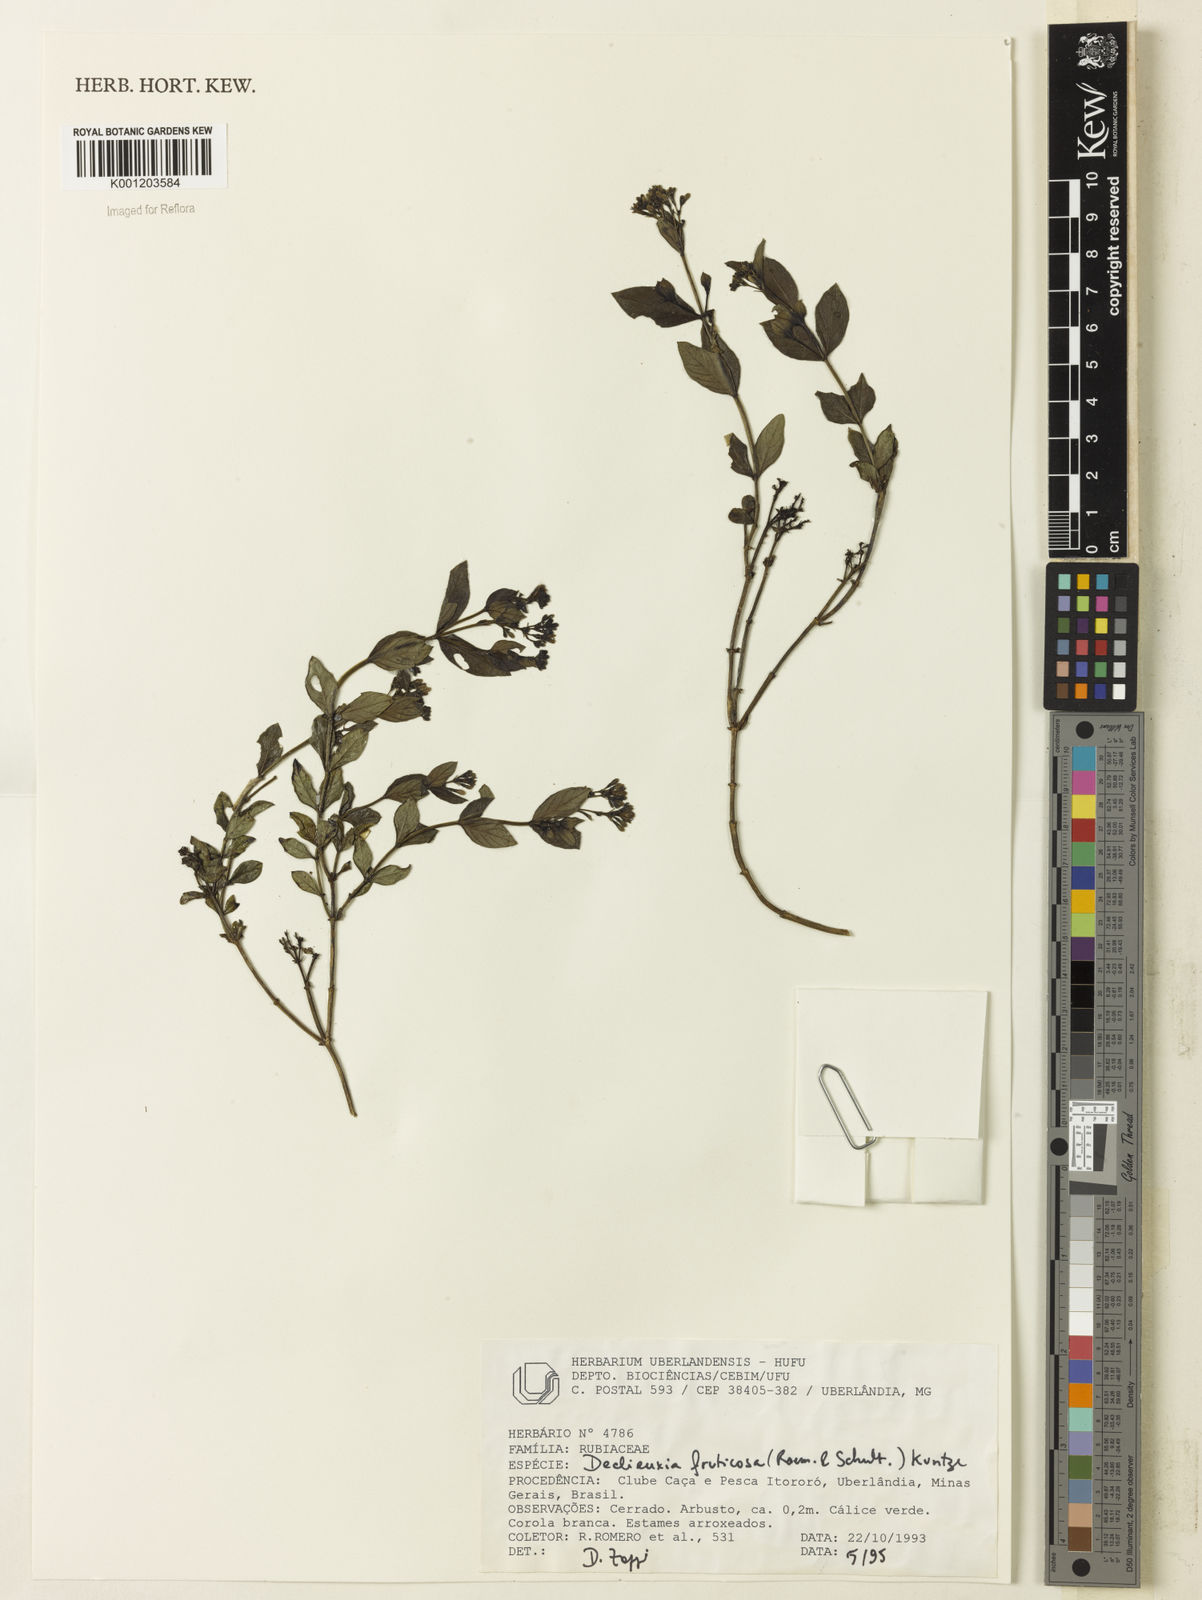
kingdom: Plantae
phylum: Tracheophyta
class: Magnoliopsida
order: Gentianales
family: Rubiaceae
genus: Declieuxia
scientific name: Declieuxia fruticosa
